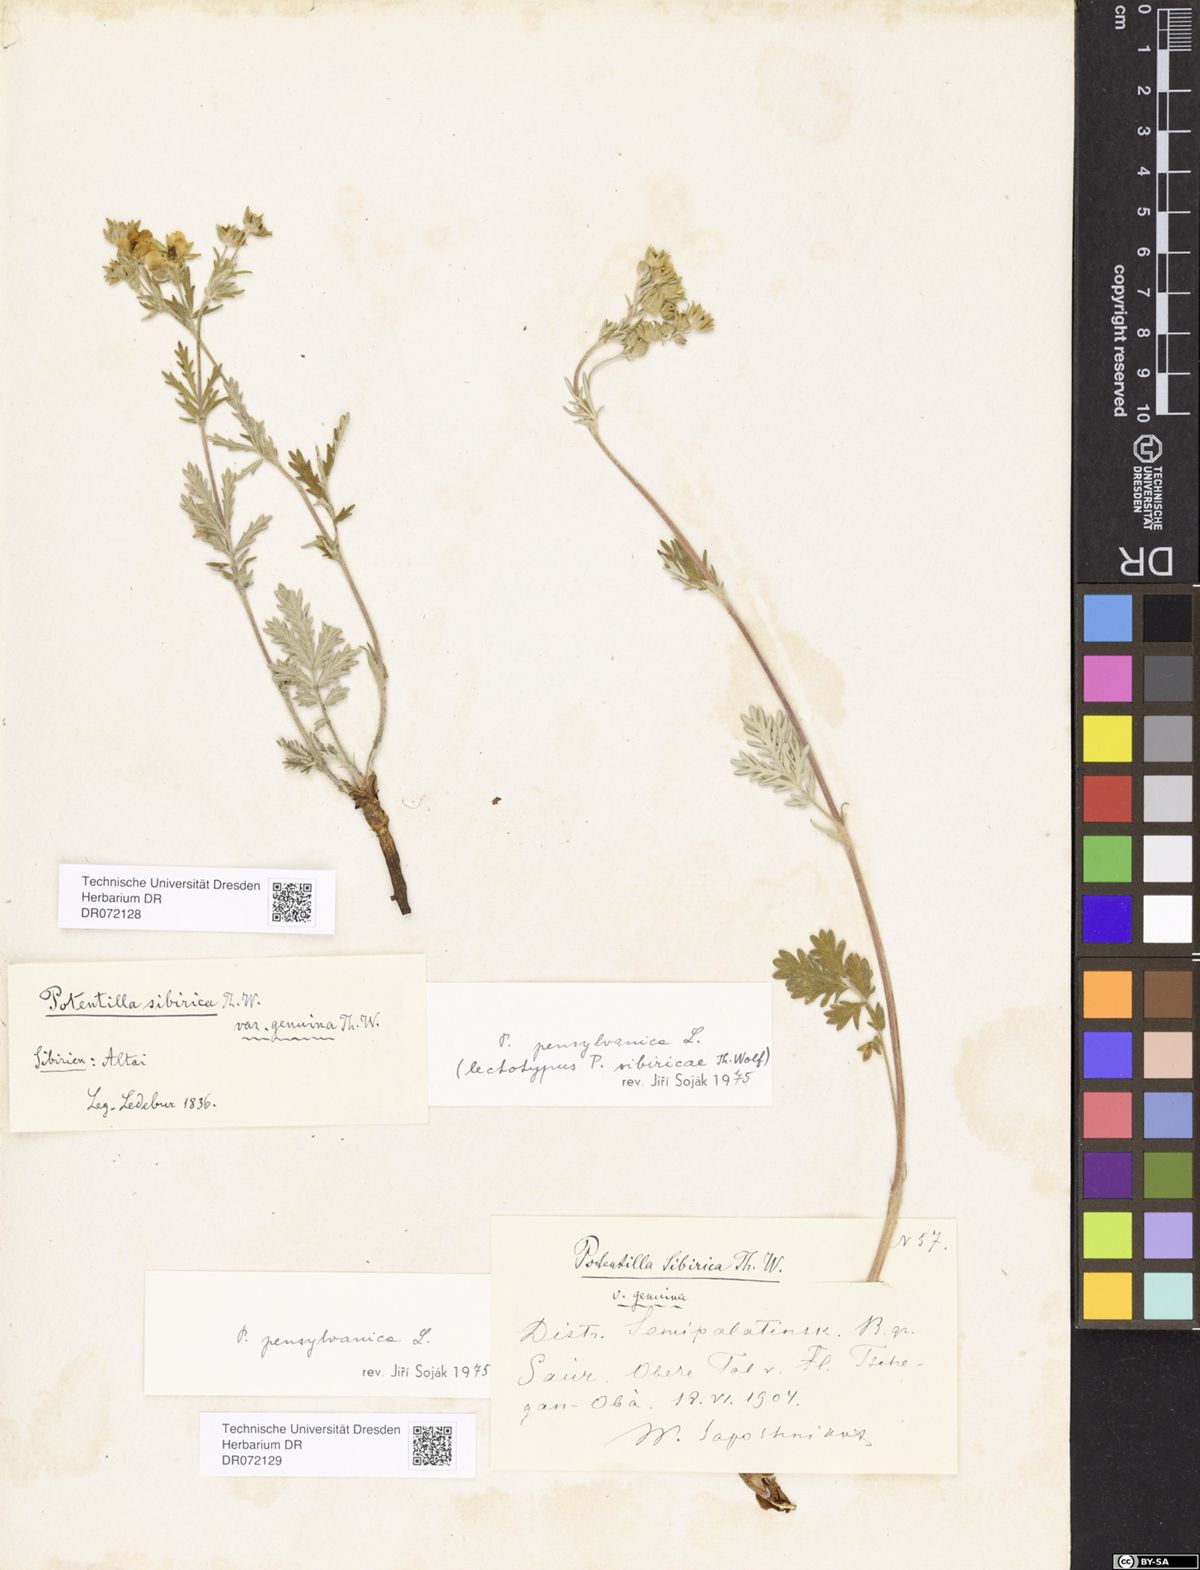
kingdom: Plantae
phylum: Tracheophyta
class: Magnoliopsida
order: Rosales
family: Rosaceae
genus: Potentilla
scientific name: Potentilla pensylvanica
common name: Pennsylvania cinquefoil
